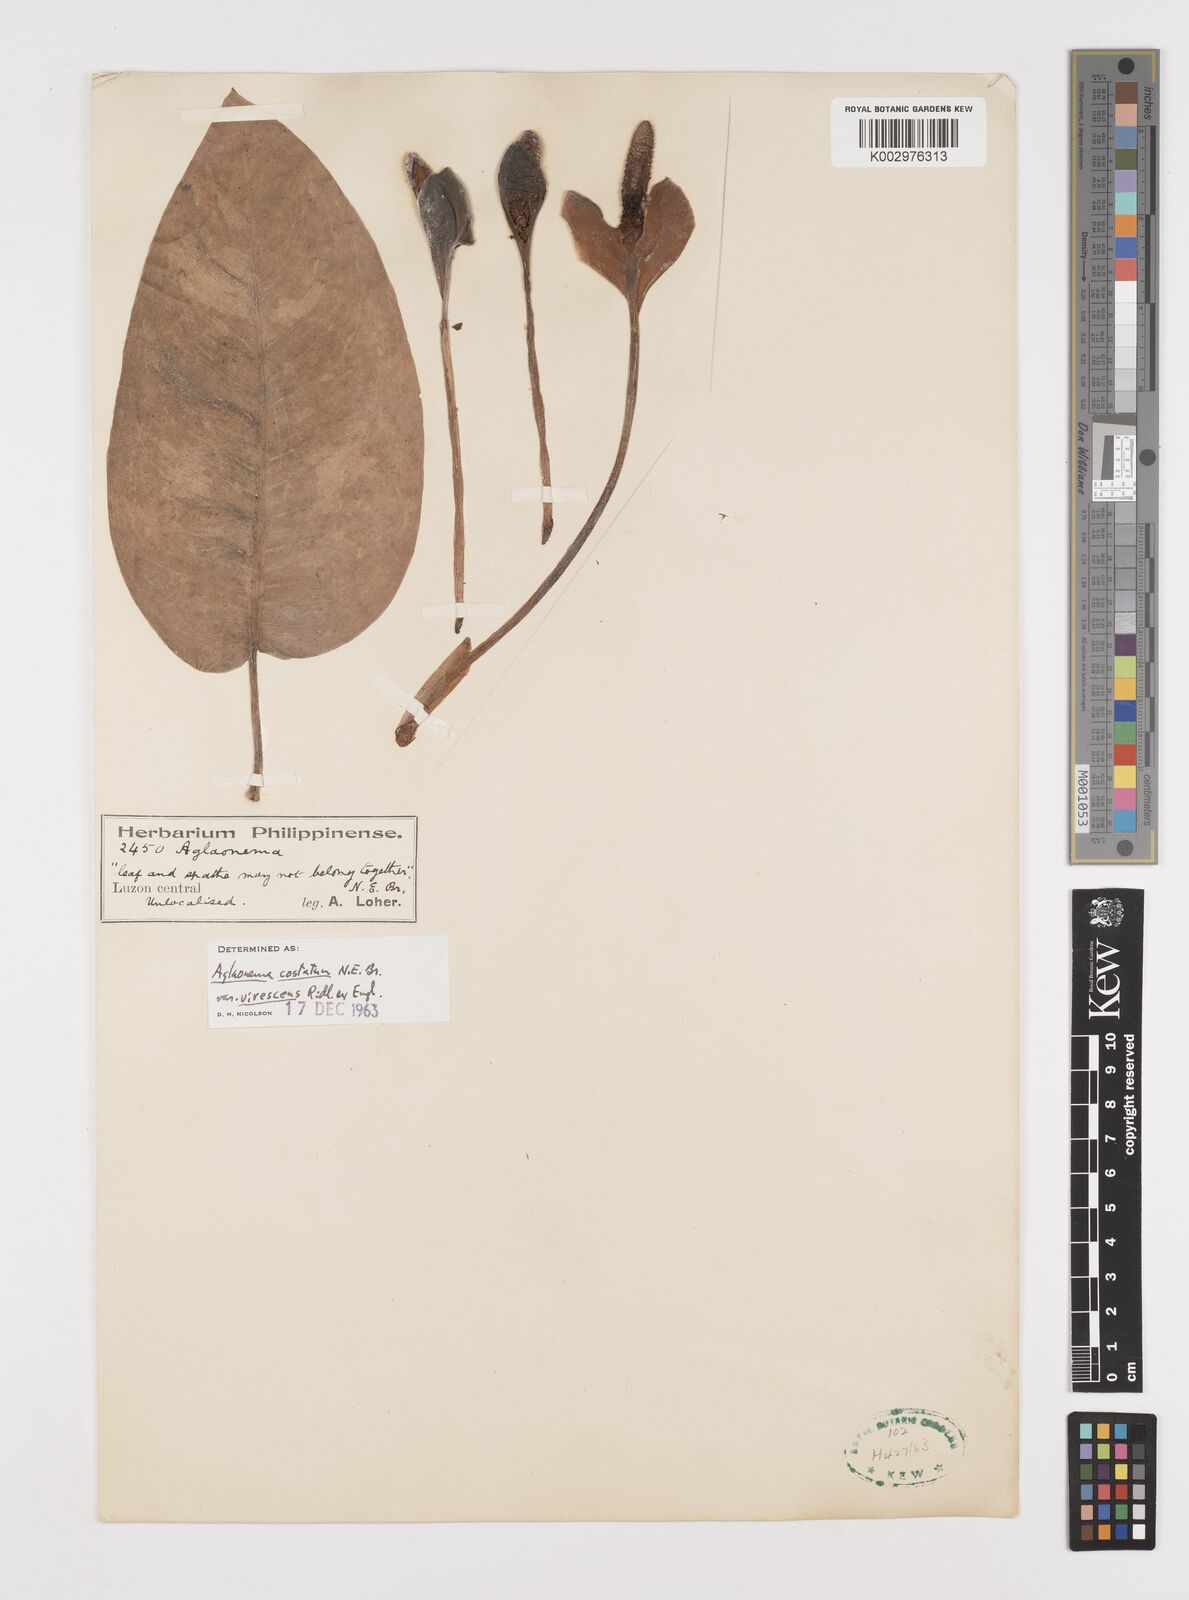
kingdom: Plantae
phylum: Tracheophyta
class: Liliopsida
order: Alismatales
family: Araceae
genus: Aglaonema
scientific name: Aglaonema costatum
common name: Chinese evergreen
